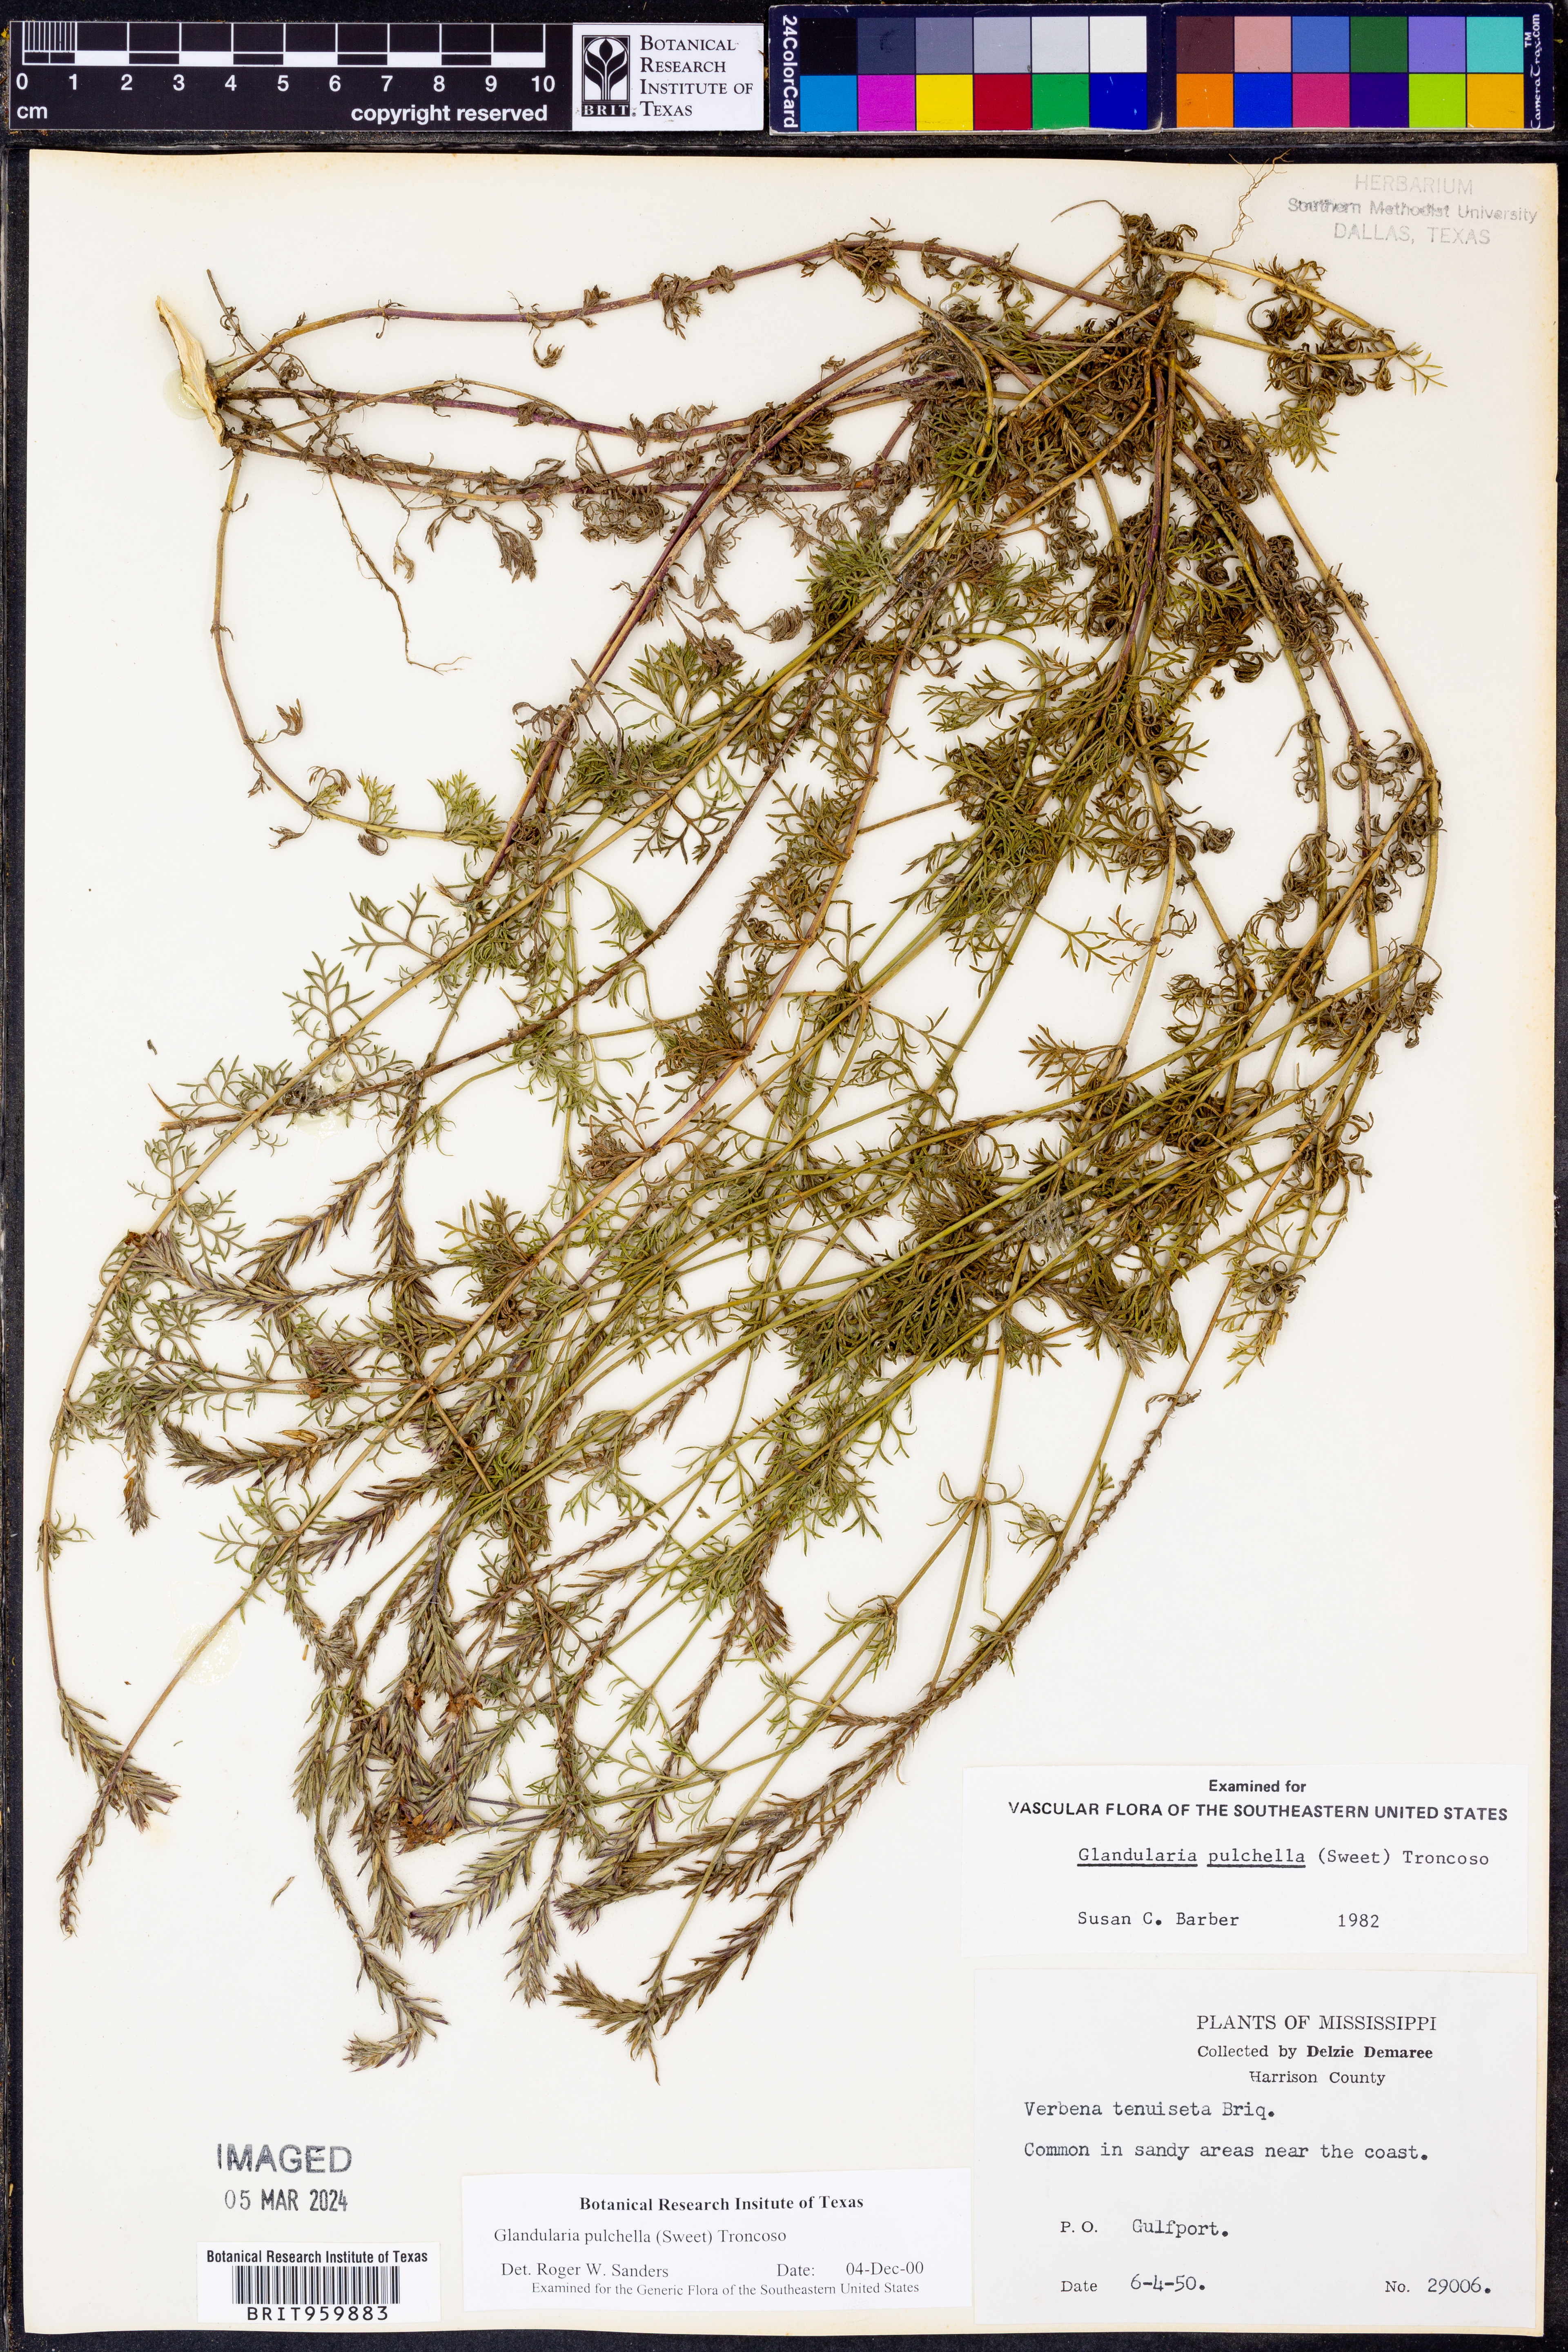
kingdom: Plantae
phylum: Tracheophyta
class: Magnoliopsida
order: Lamiales
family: Verbenaceae
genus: Verbena
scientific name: Verbena tenera
